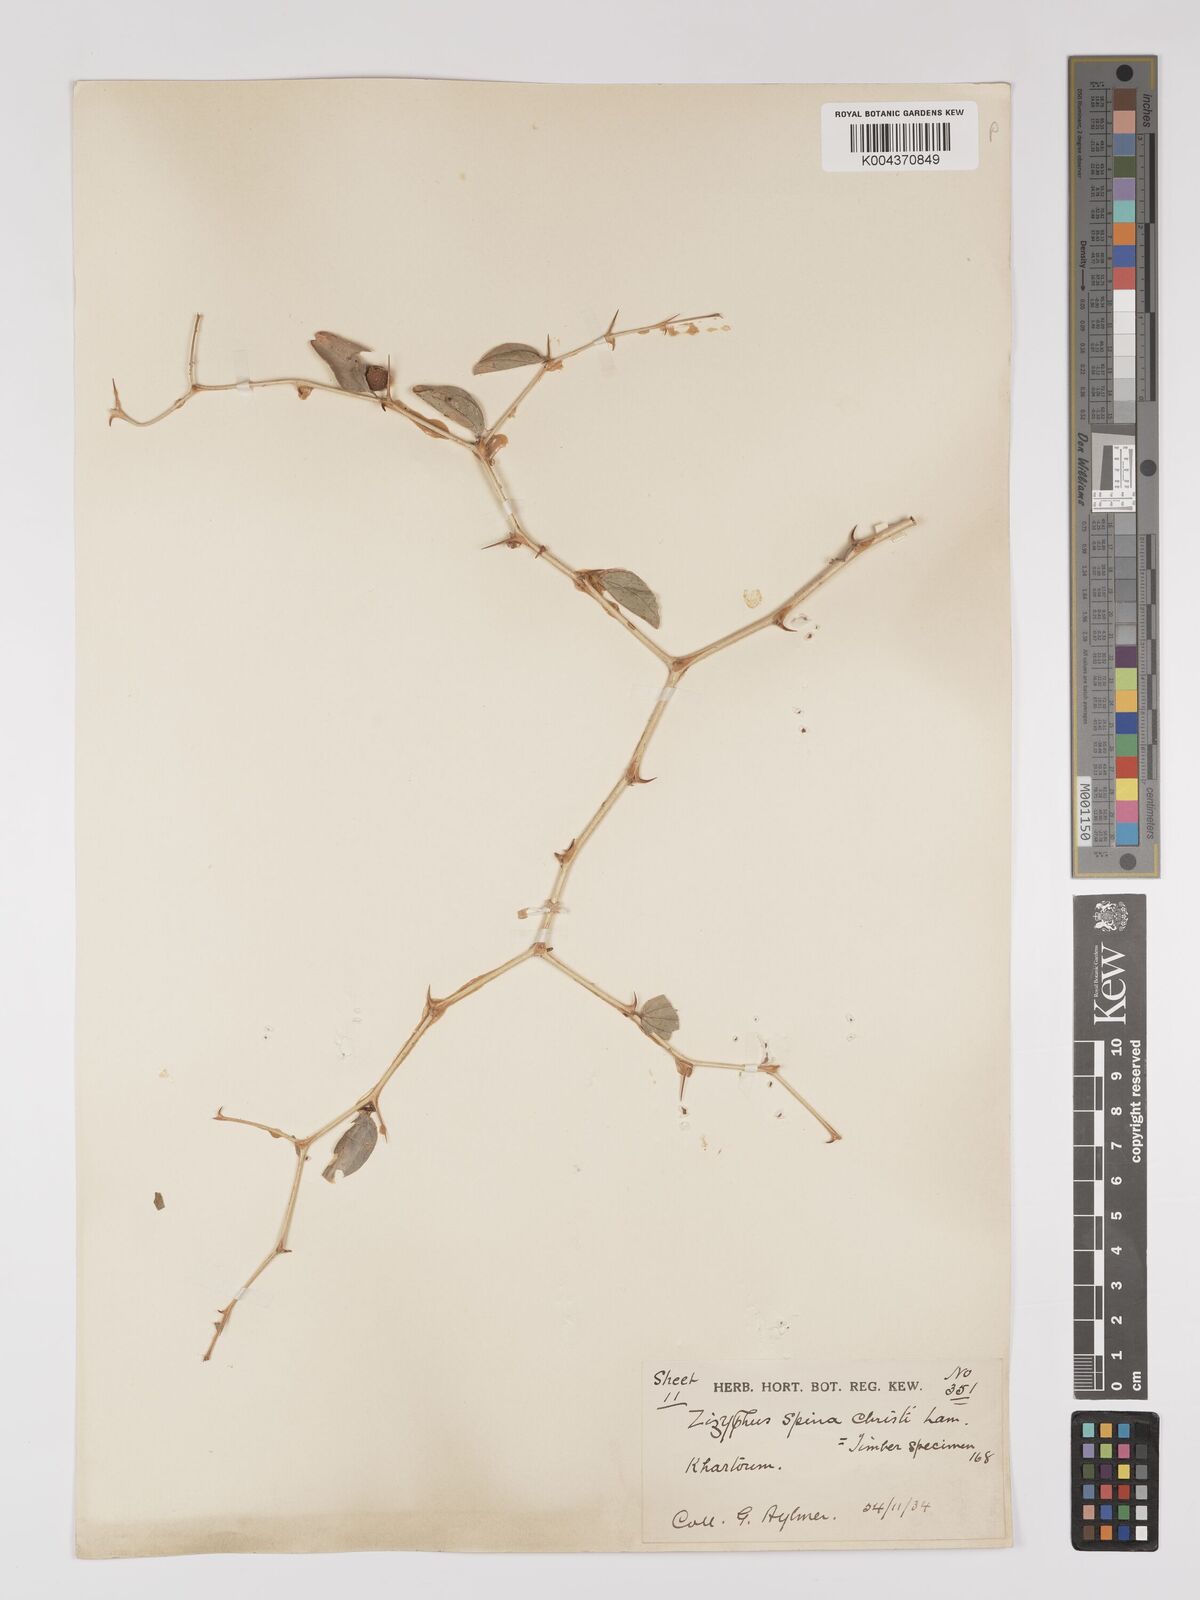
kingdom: Plantae
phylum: Tracheophyta
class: Magnoliopsida
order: Rosales
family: Rhamnaceae
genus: Ziziphus
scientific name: Ziziphus spina-christi
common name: Syrian christ-thorn
